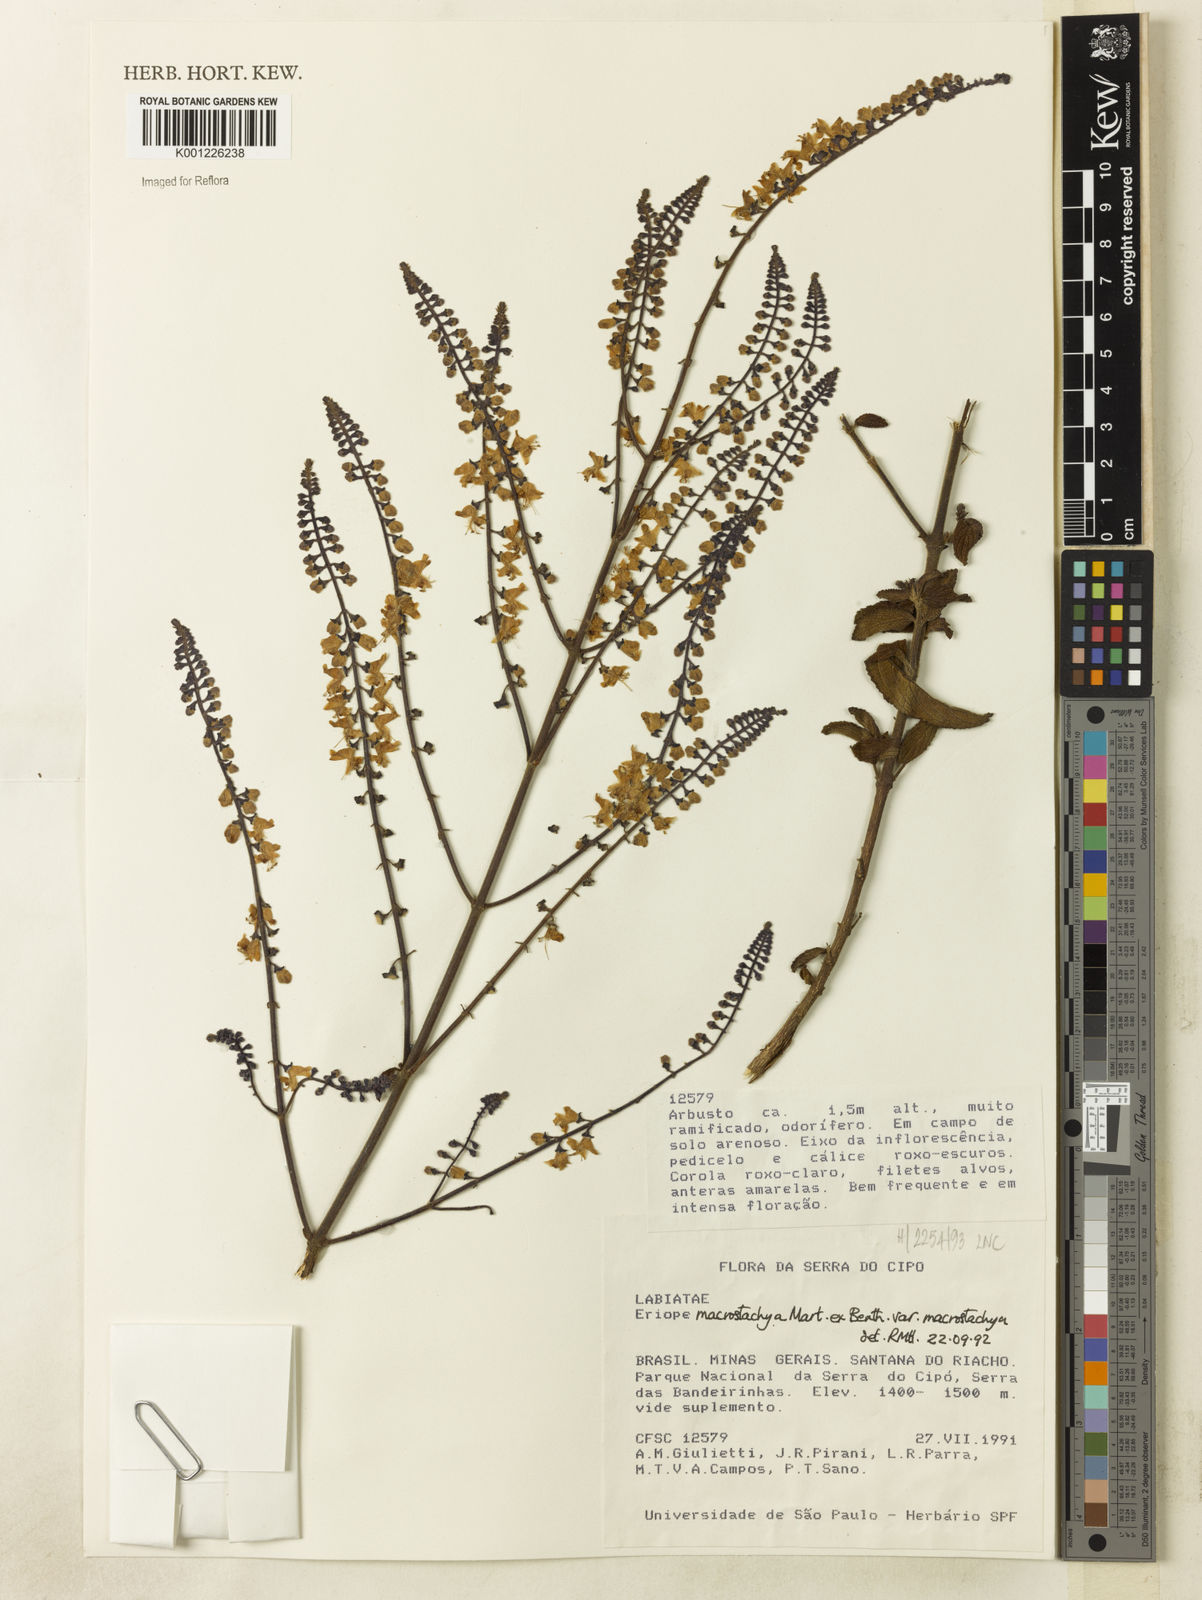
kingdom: Plantae
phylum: Tracheophyta
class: Magnoliopsida
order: Lamiales
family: Lamiaceae
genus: Eriope
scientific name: Eriope macrostachya
